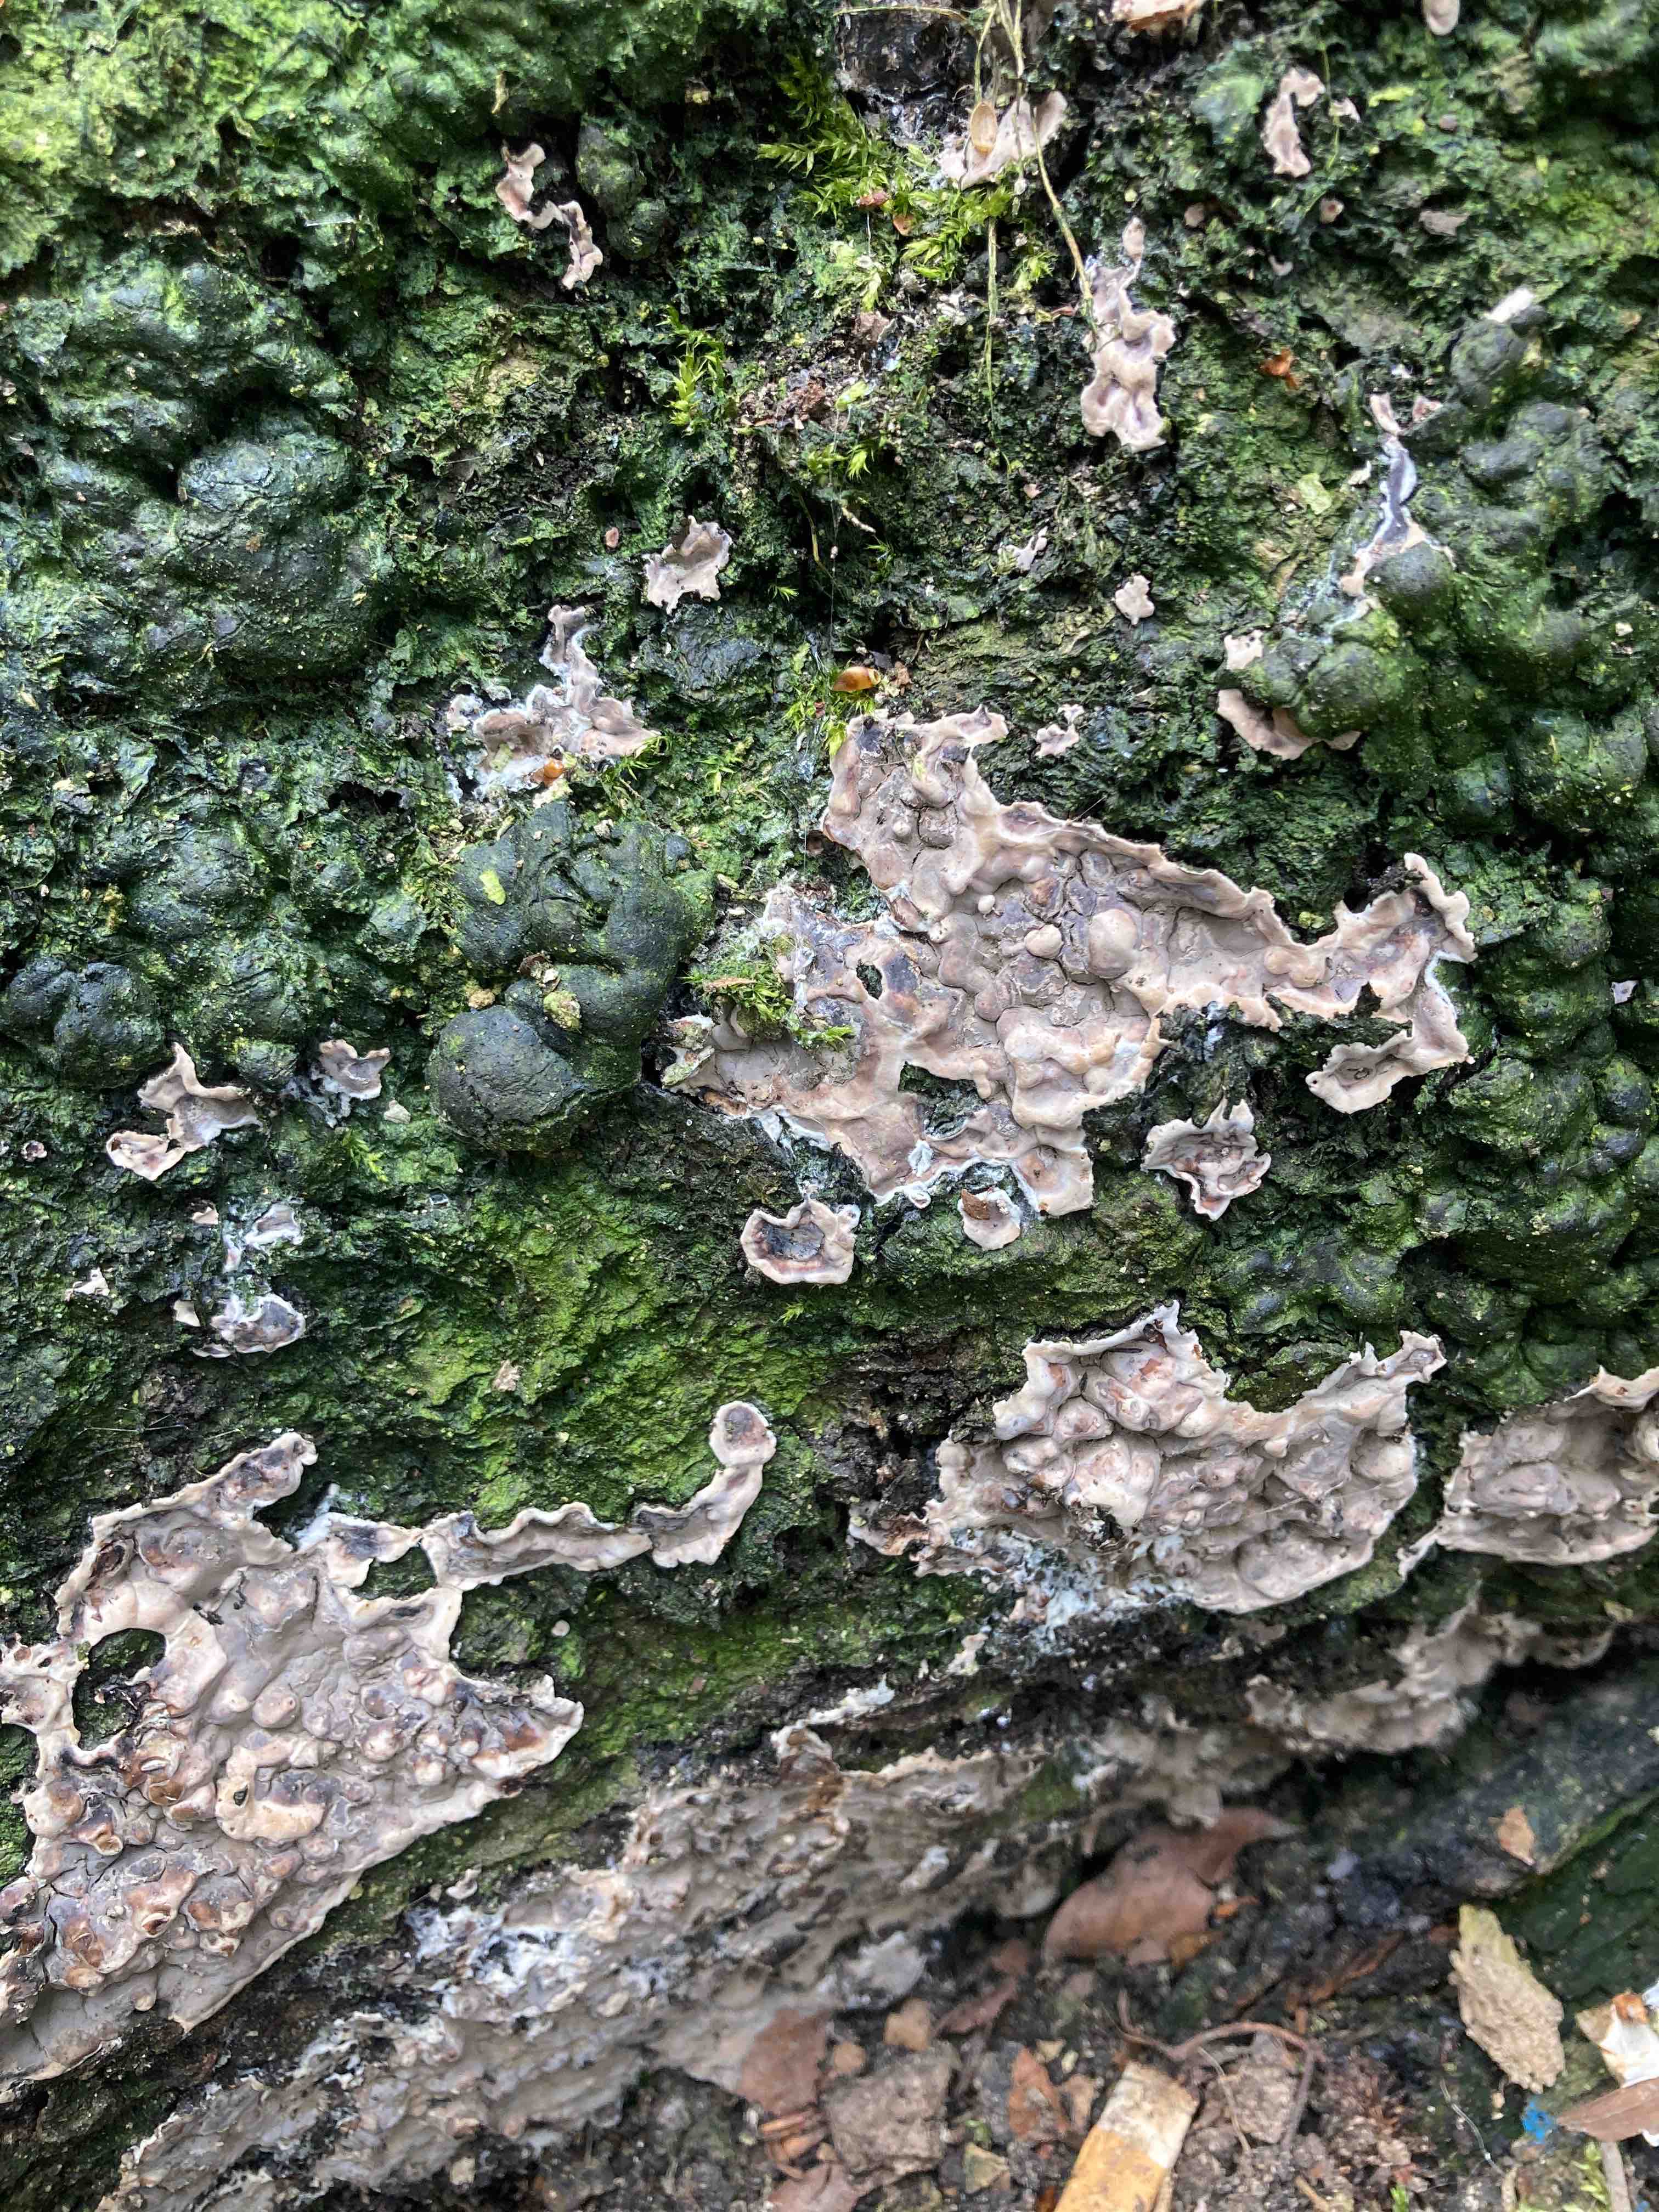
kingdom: Fungi
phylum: Ascomycota
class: Sordariomycetes
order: Xylariales
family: Xylariaceae
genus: Kretzschmaria
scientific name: Kretzschmaria deusta
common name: stor kulsvamp
